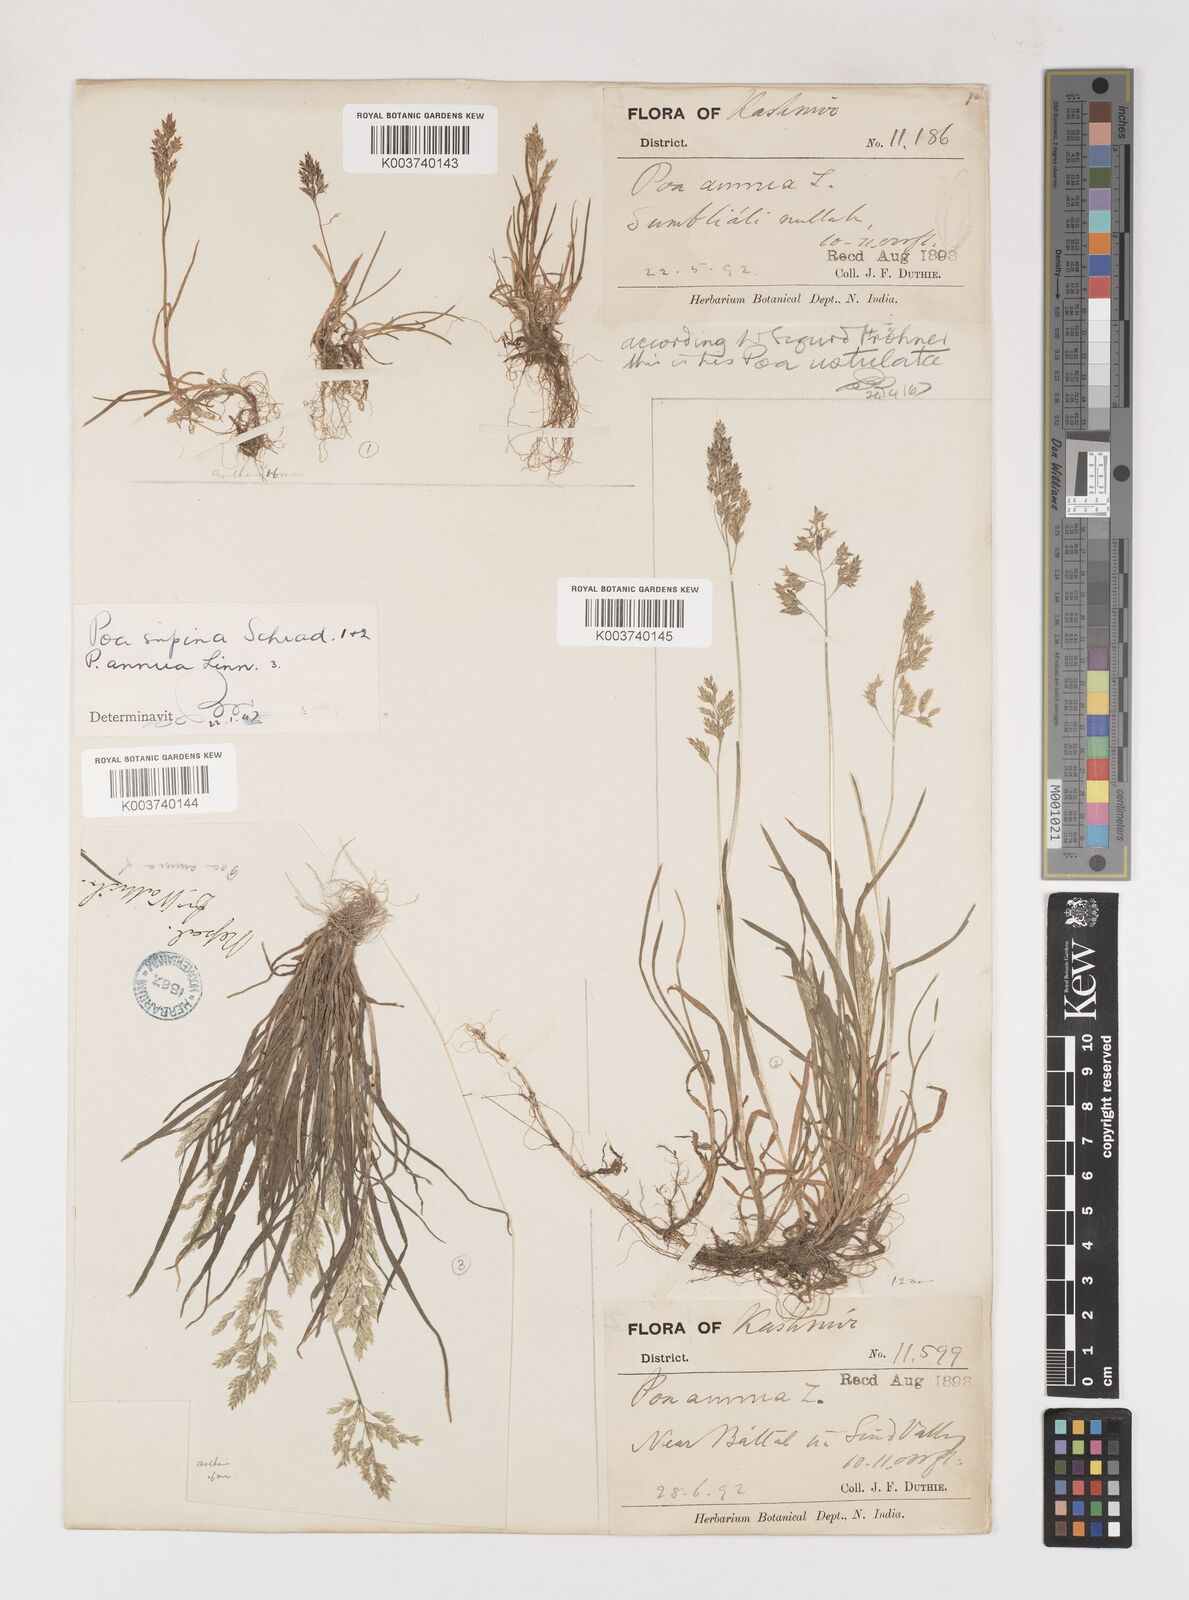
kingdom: Plantae
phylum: Tracheophyta
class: Liliopsida
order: Poales
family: Poaceae
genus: Poa
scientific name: Poa supina
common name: Supina bluegrass
